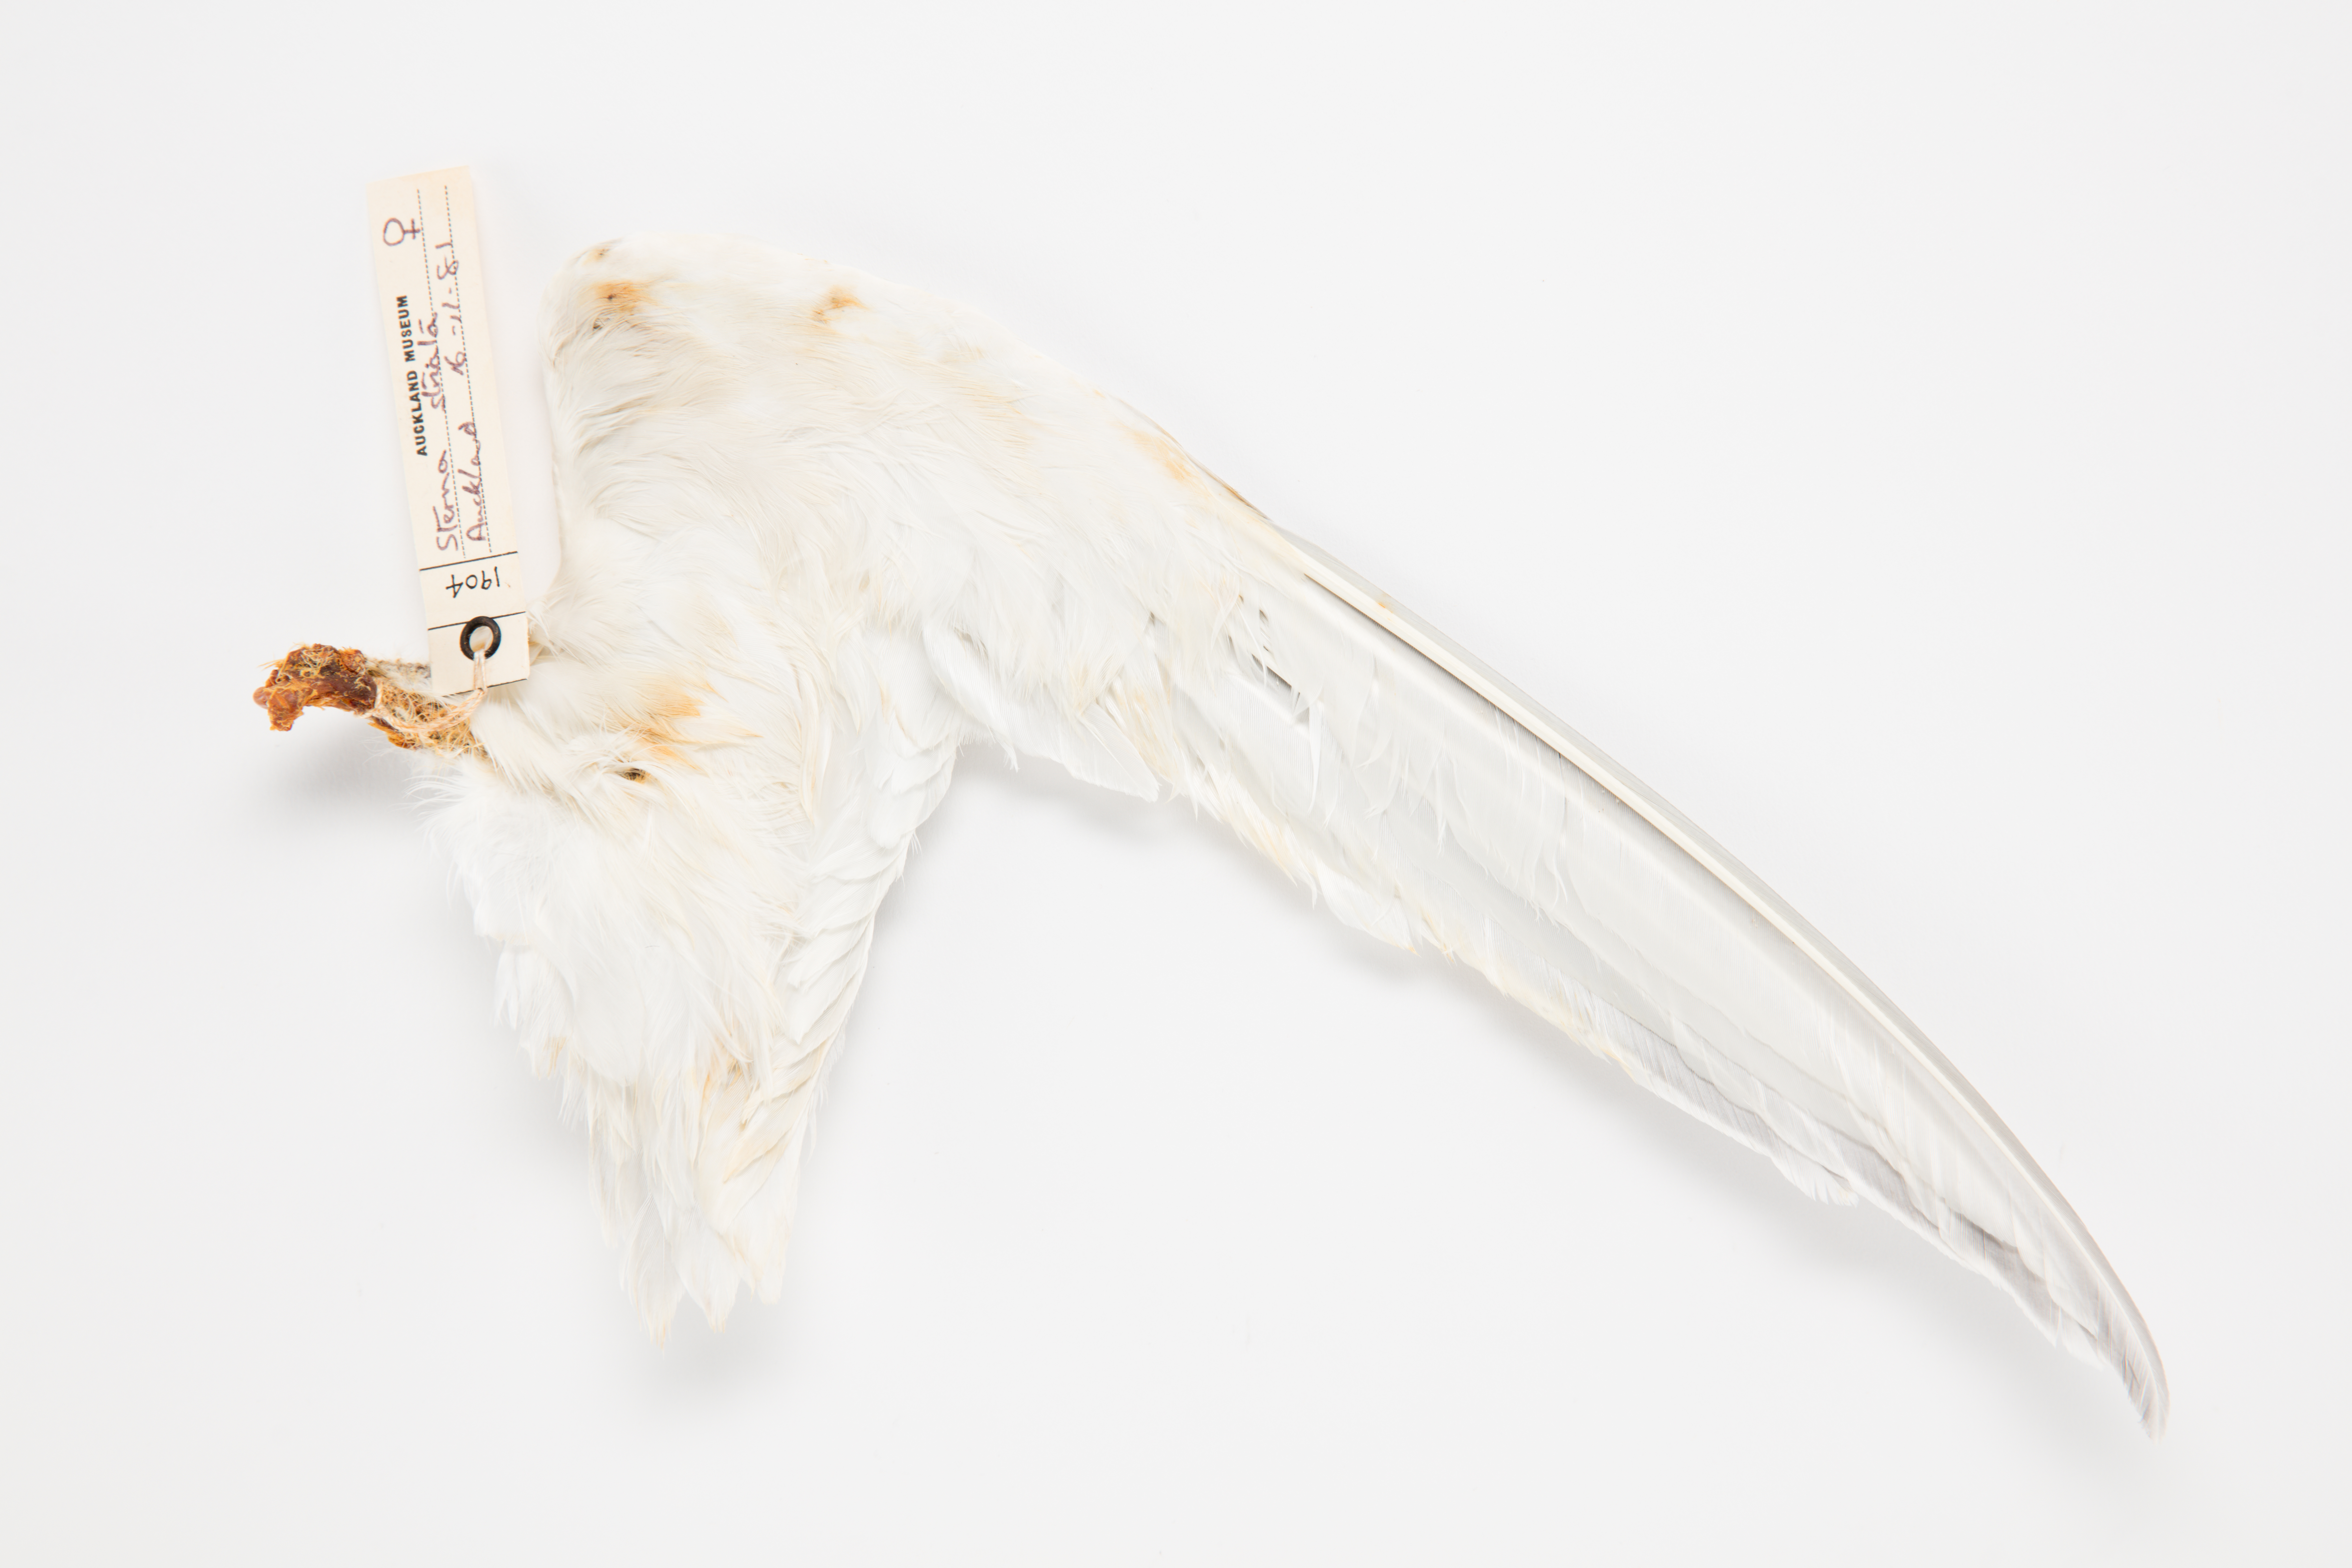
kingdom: Animalia
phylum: Chordata
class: Aves
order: Charadriiformes
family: Laridae
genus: Sterna
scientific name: Sterna striata
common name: White-fronted tern
